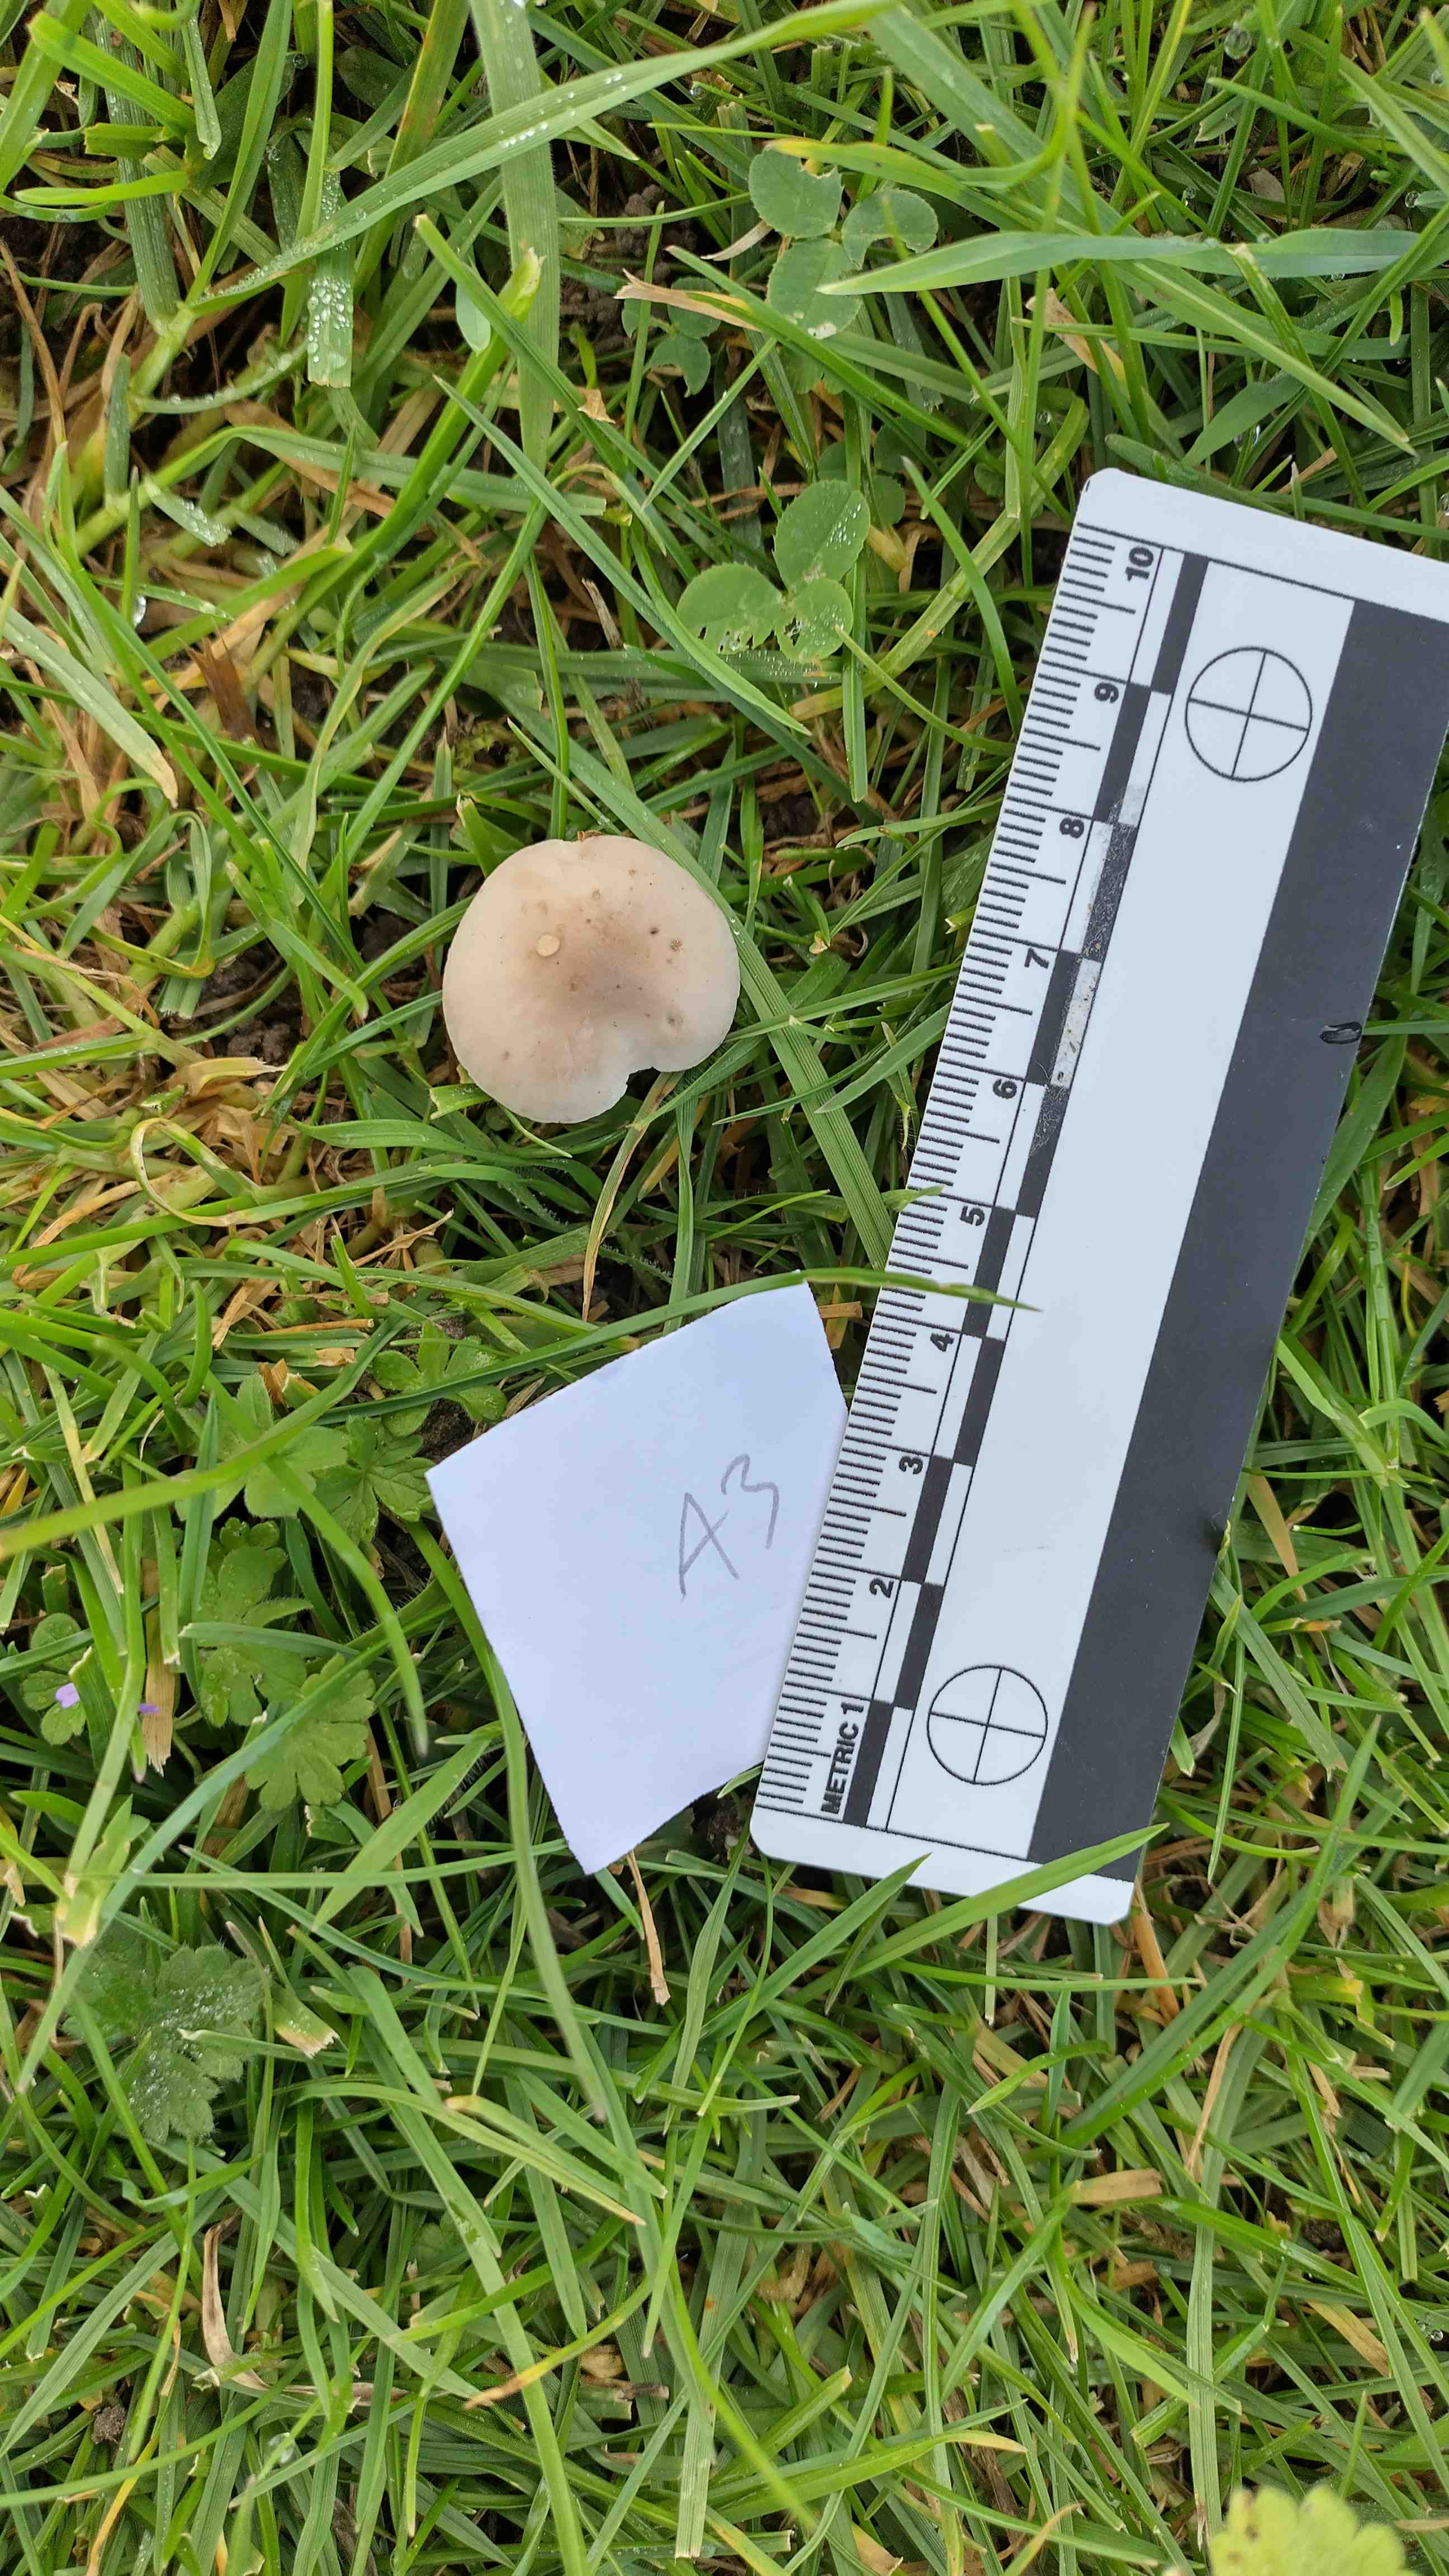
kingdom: Fungi
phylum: Basidiomycota
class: Agaricomycetes
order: Agaricales
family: Bolbitiaceae
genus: Panaeolina
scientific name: Panaeolina foenisecii
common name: høslætsvamp
